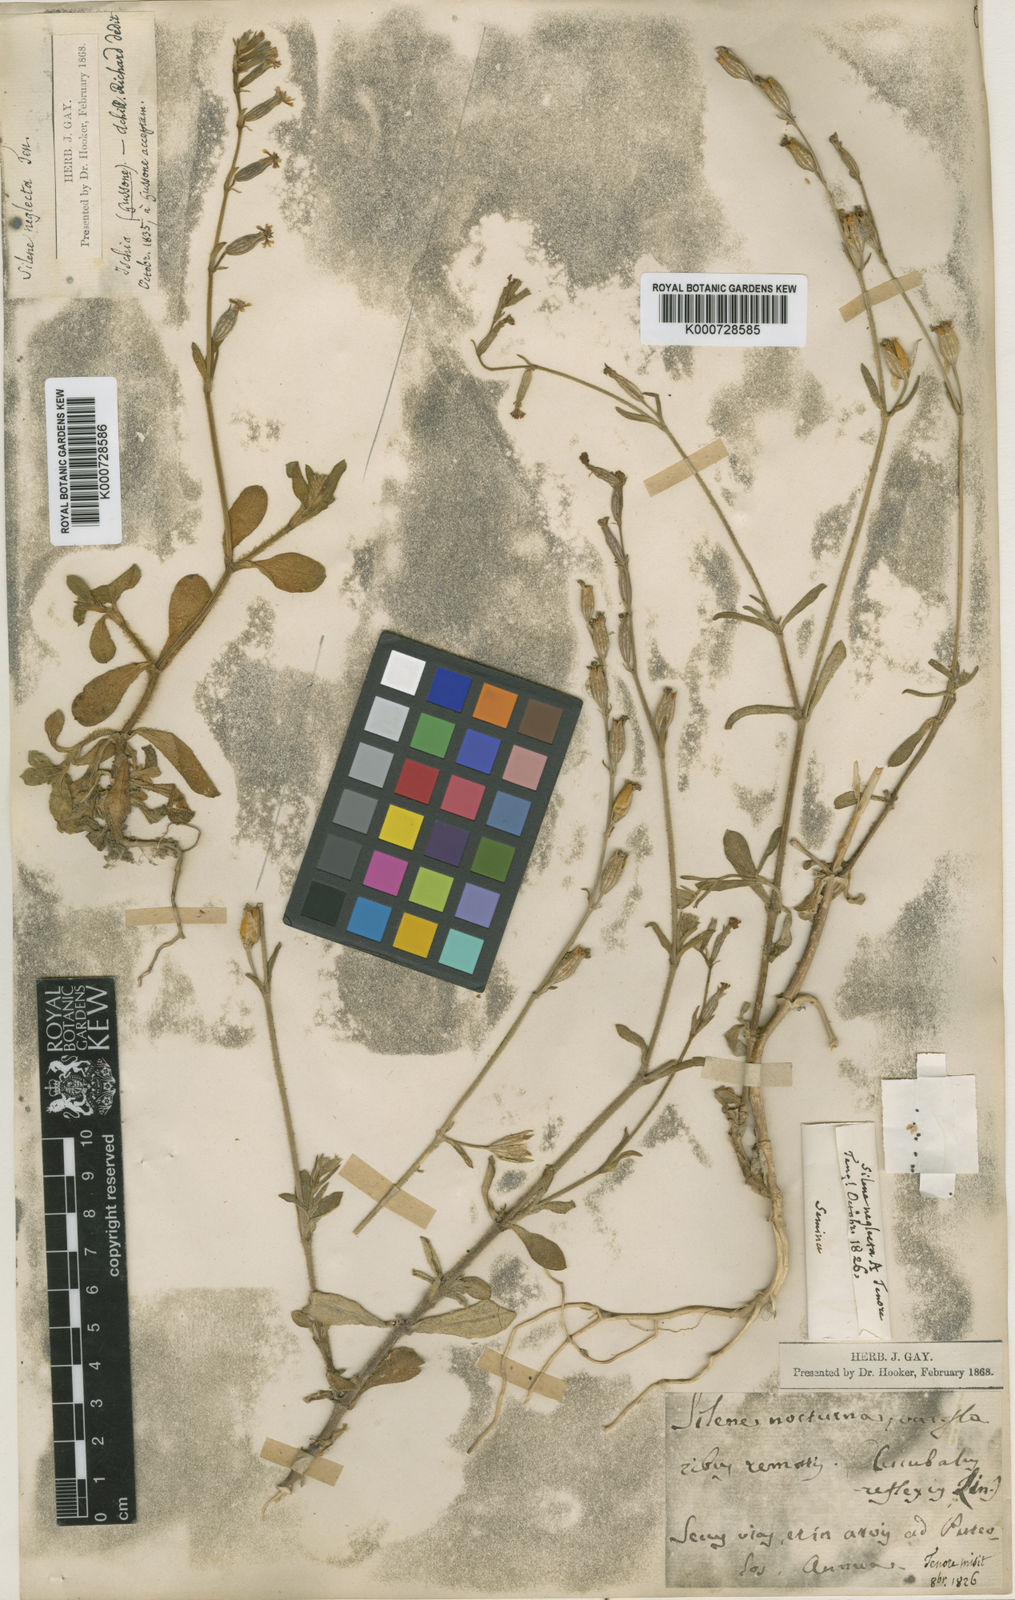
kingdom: Plantae
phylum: Tracheophyta
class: Magnoliopsida
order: Caryophyllales
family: Caryophyllaceae
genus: Silene
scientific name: Silene nocturna
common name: Mediterranean catchfly
